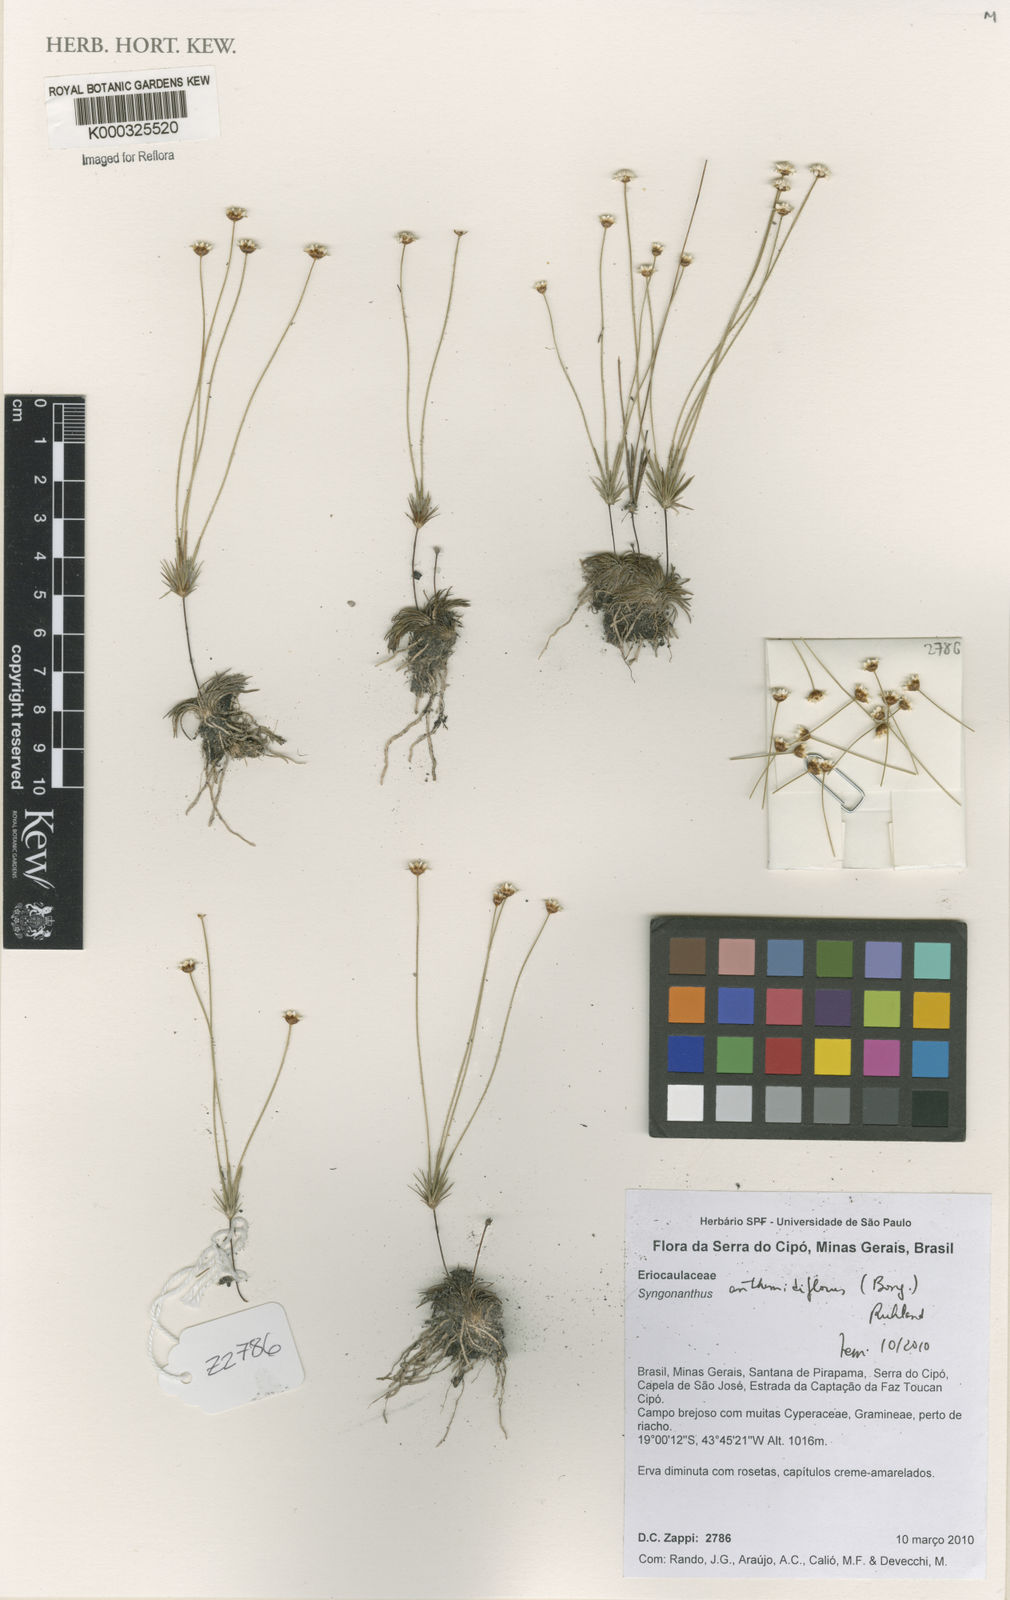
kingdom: Plantae
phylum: Tracheophyta
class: Liliopsida
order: Poales
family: Eriocaulaceae
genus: Syngonanthus
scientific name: Syngonanthus anthemidiflorus
